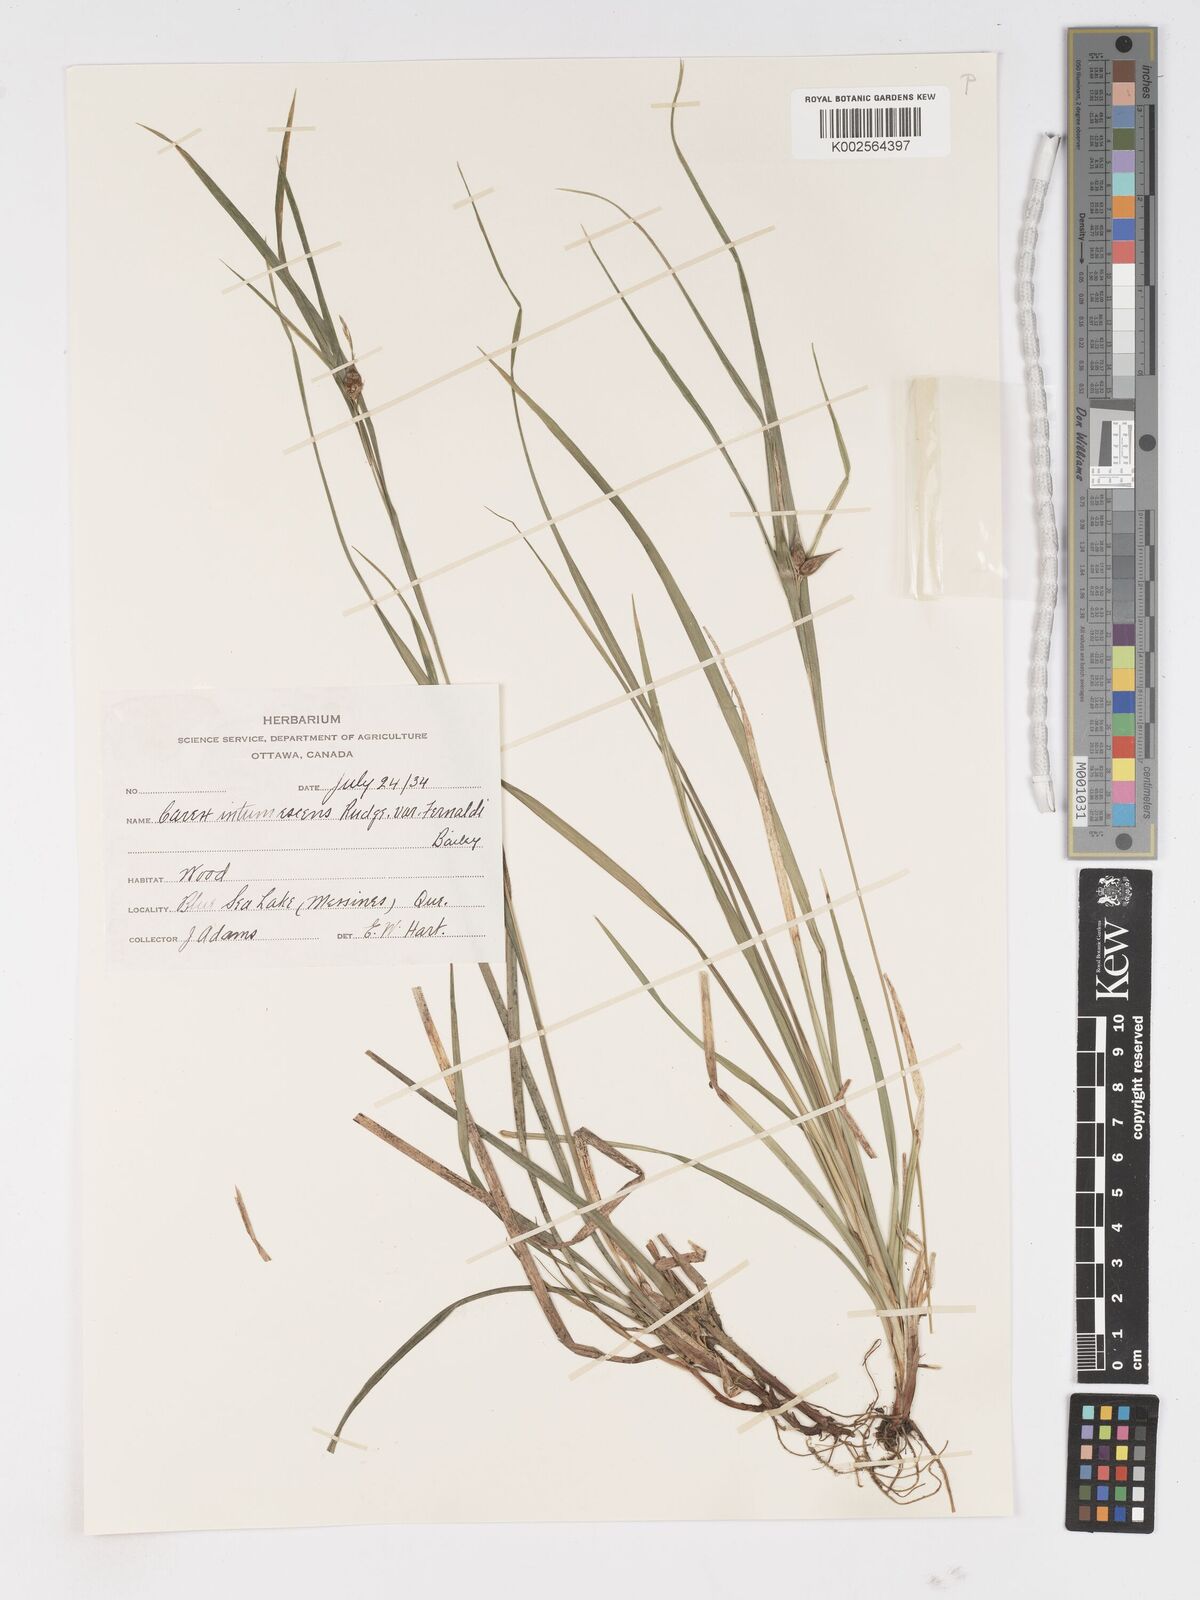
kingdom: Plantae
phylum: Tracheophyta
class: Liliopsida
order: Poales
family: Cyperaceae
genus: Carex
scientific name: Carex intumescens
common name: Greater bladder sedge
